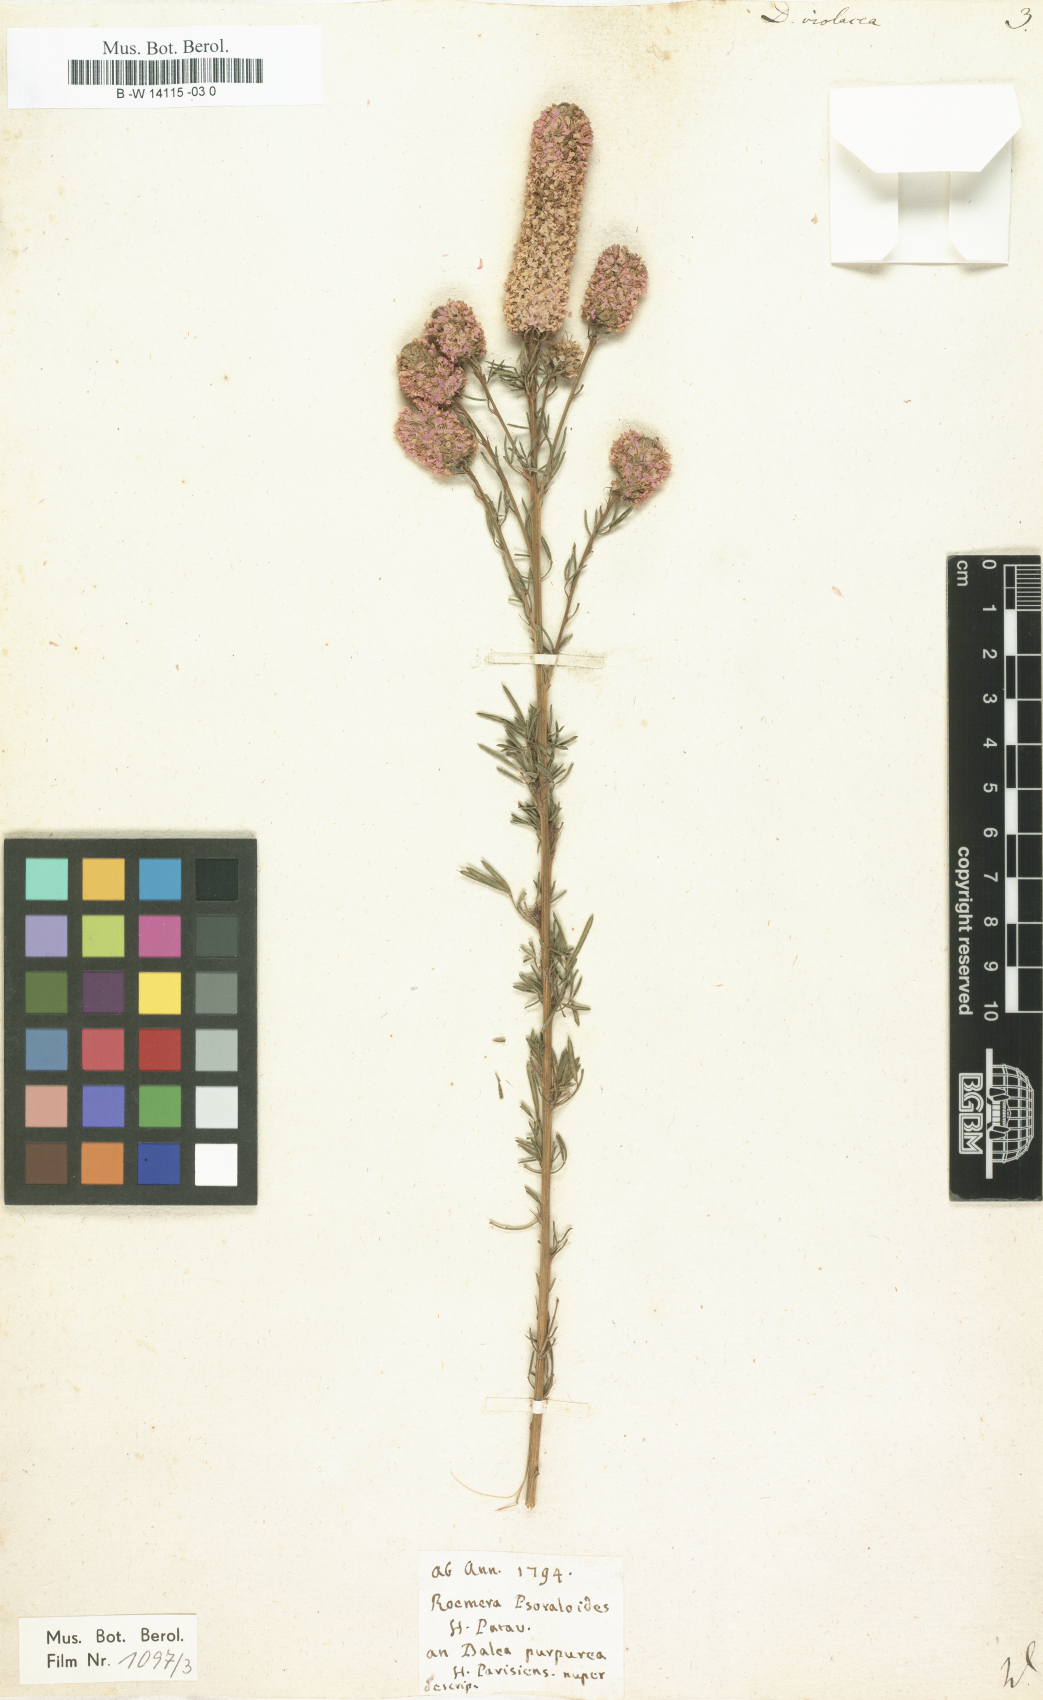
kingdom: Plantae
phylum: Tracheophyta
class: Magnoliopsida
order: Fabales
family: Fabaceae
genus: Dalea
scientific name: Dalea purpurea
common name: Purple prairie-clover
